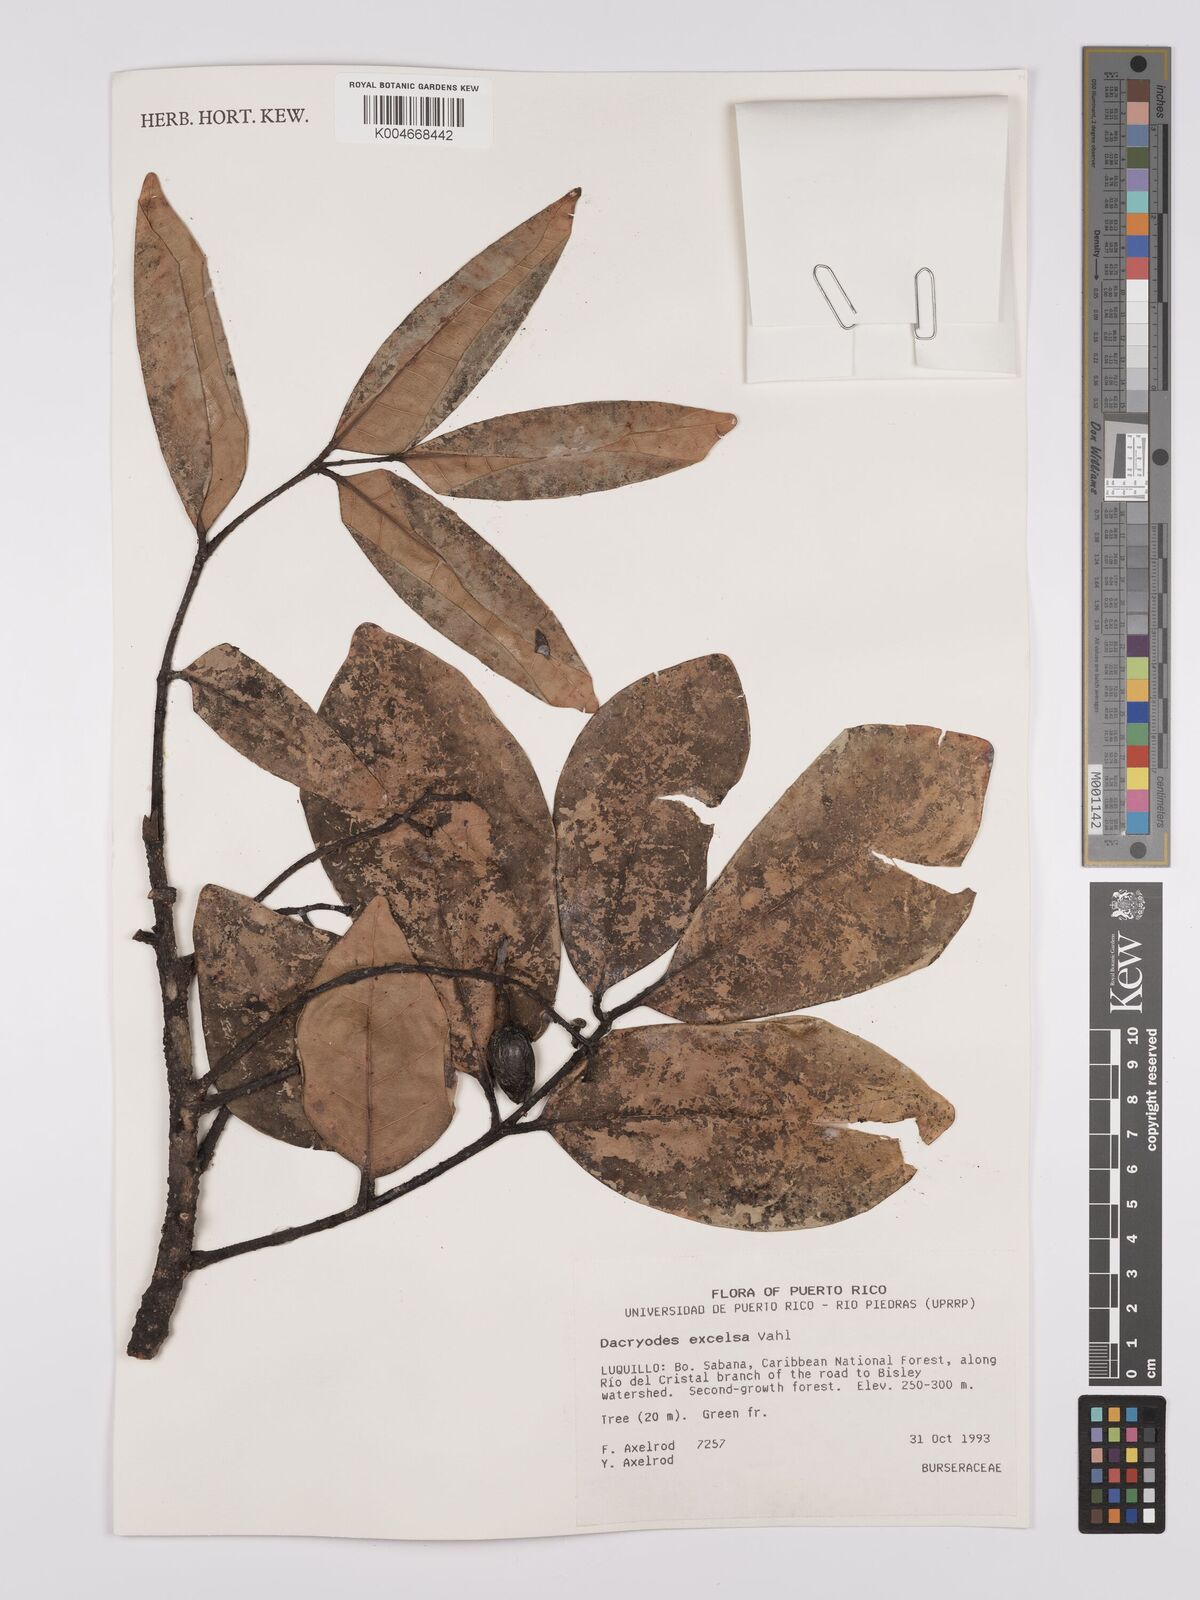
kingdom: Plantae
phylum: Tracheophyta
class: Magnoliopsida
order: Sapindales
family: Burseraceae
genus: Dacryodes
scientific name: Dacryodes excelsa
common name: Candlewood
